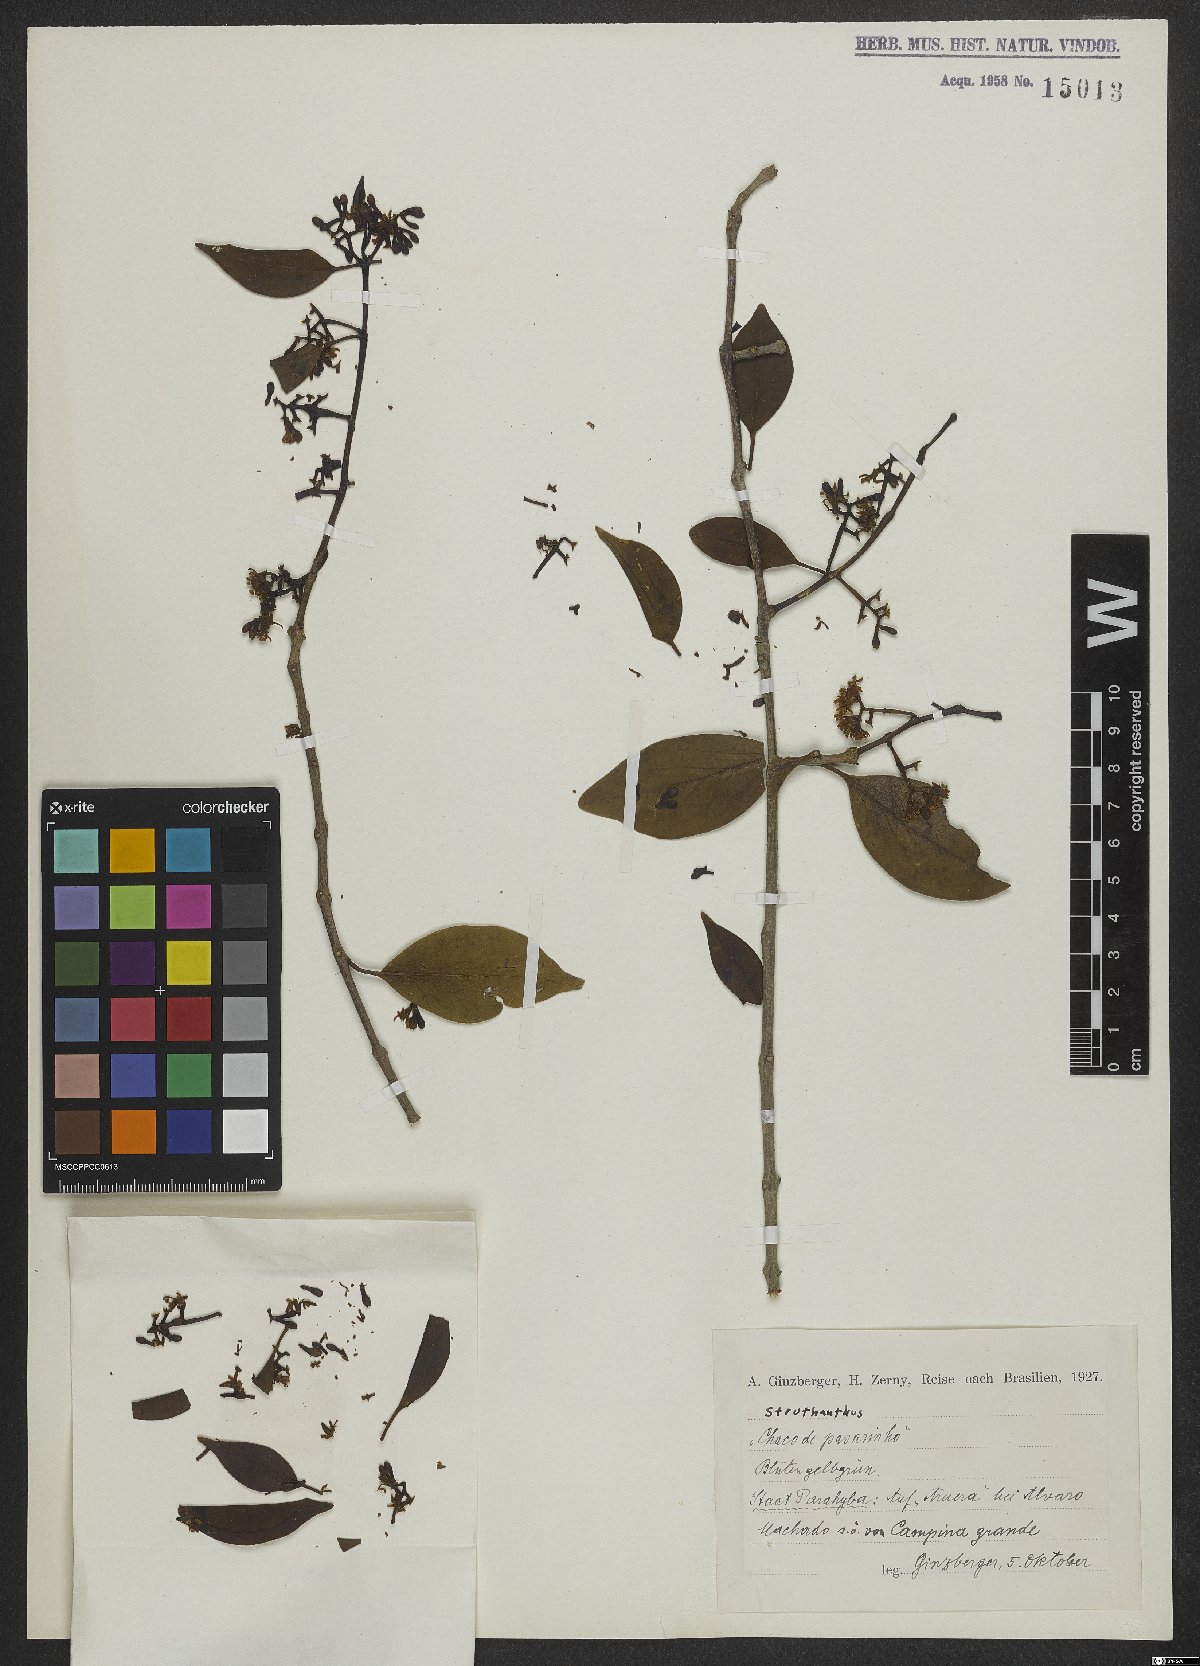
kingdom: Plantae
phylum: Tracheophyta
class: Magnoliopsida
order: Santalales
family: Loranthaceae
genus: Struthanthus
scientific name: Struthanthus
